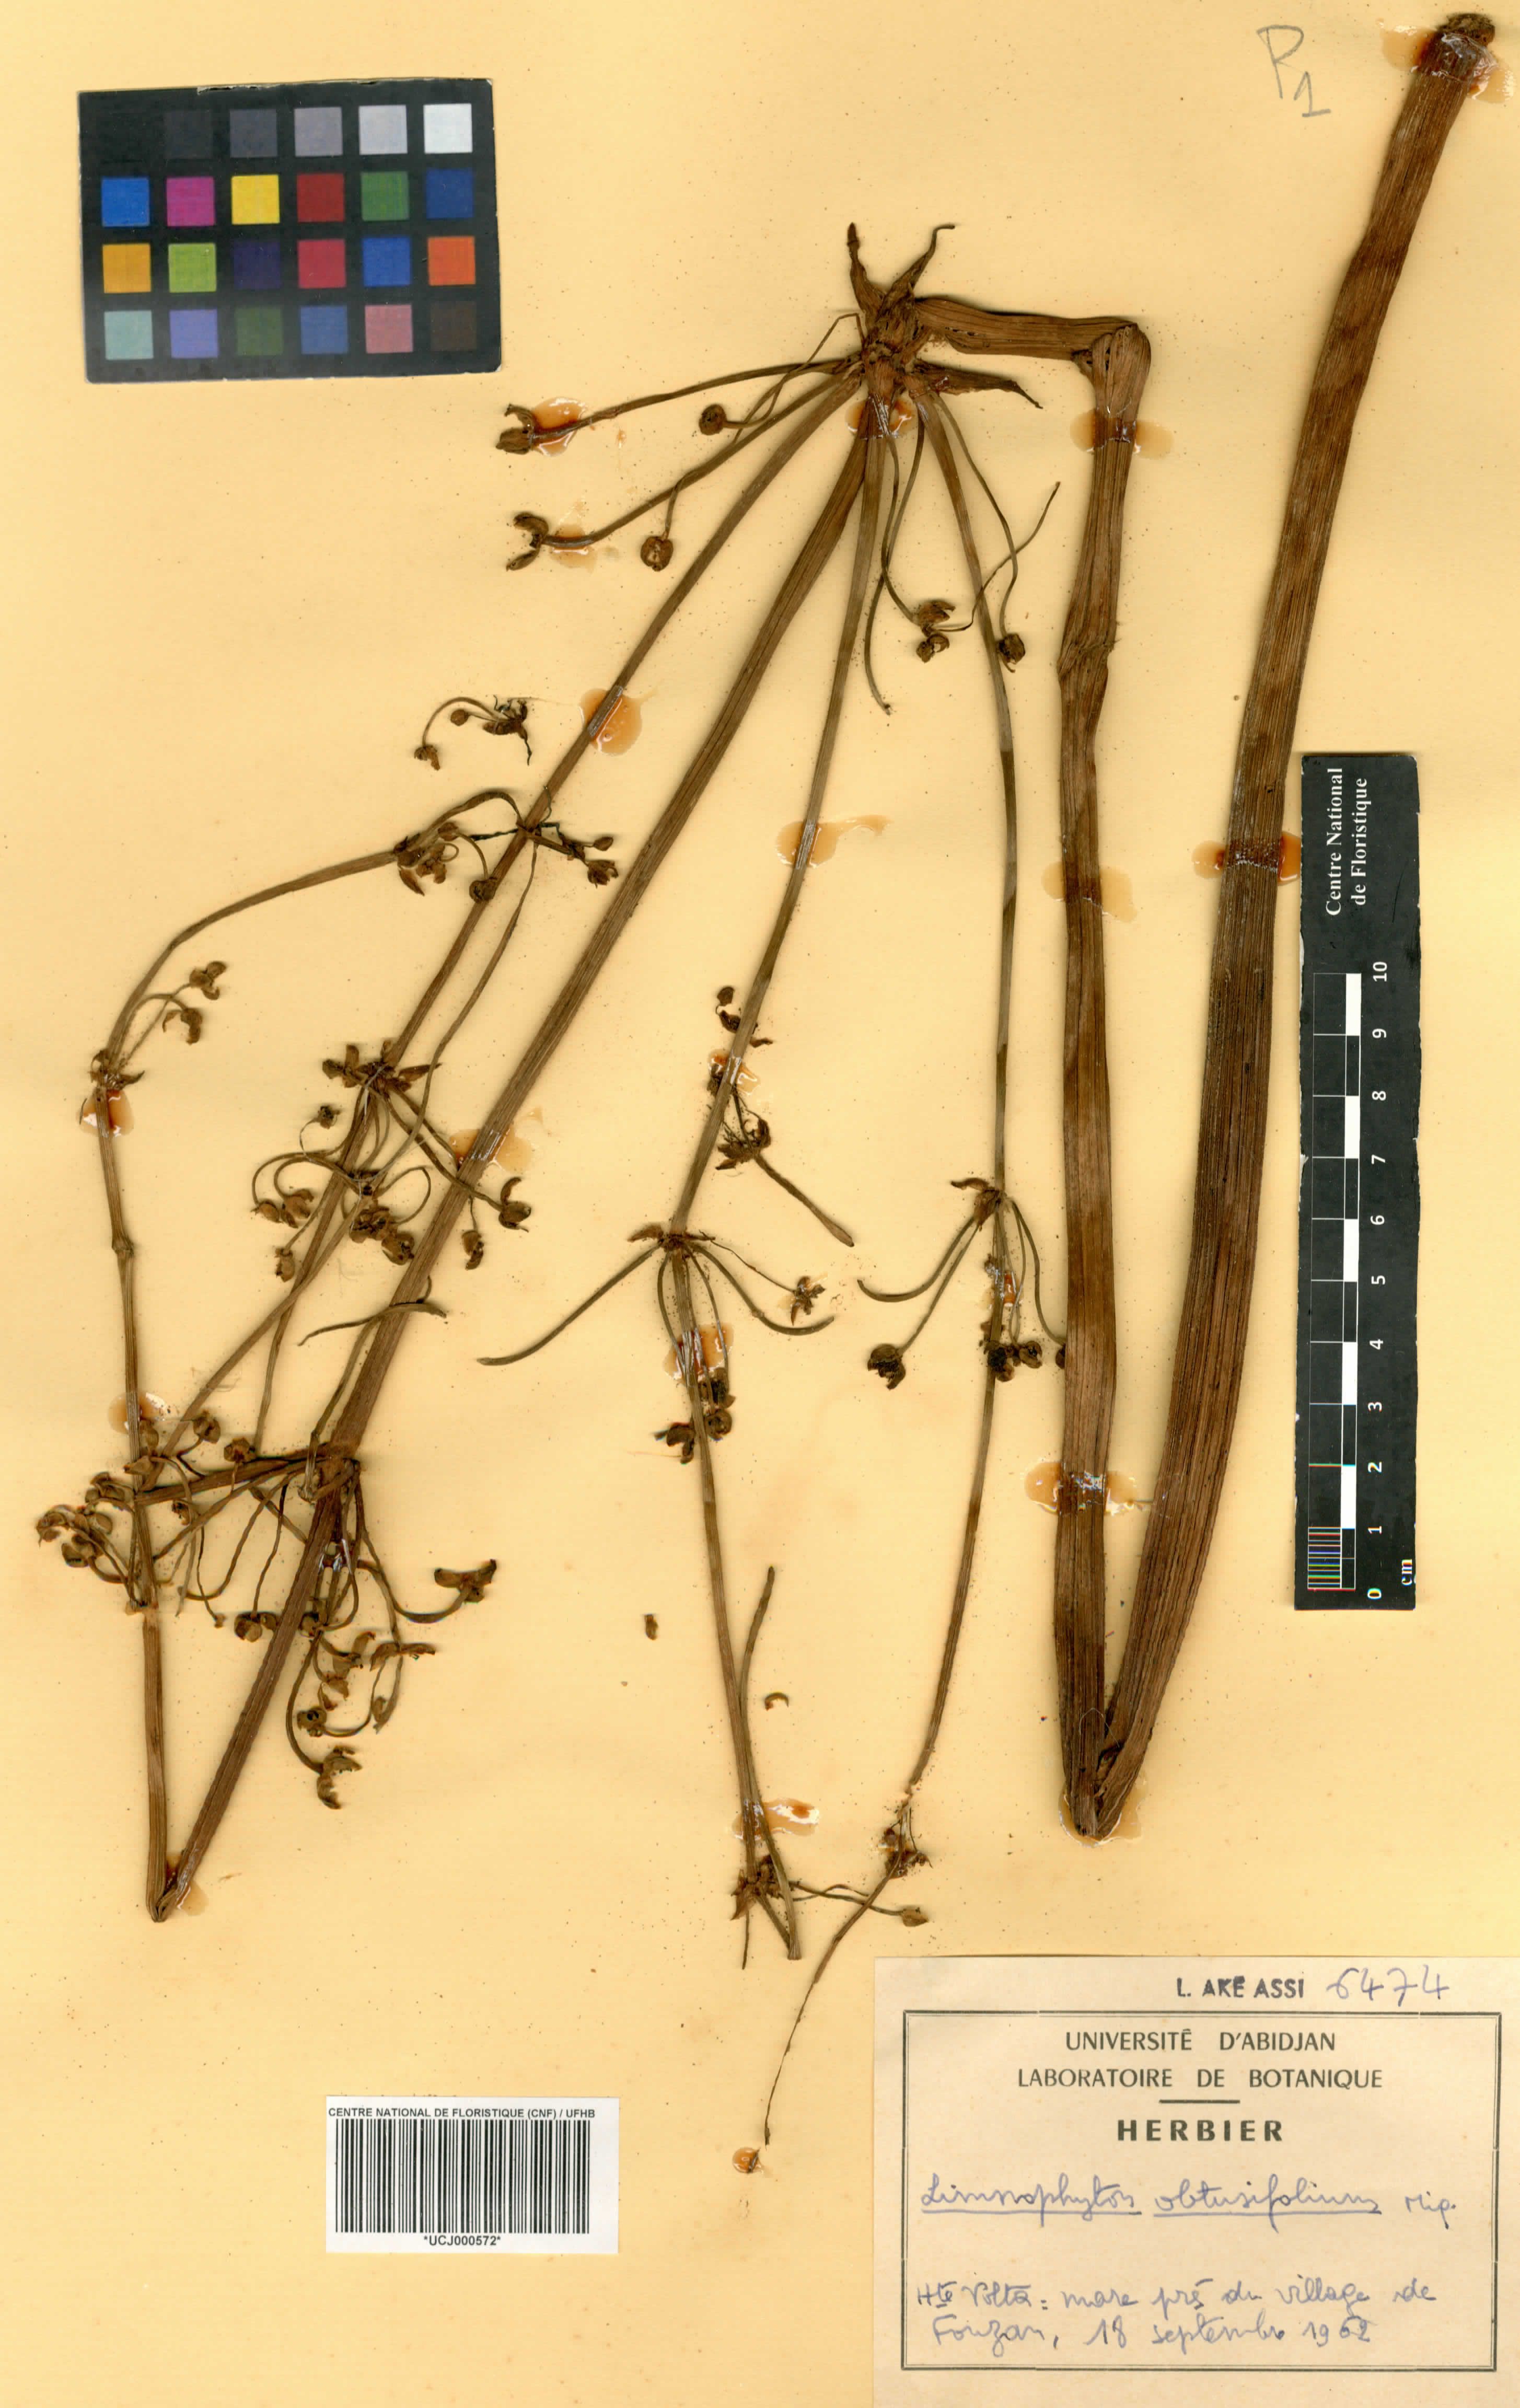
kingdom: Plantae
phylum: Tracheophyta
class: Liliopsida
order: Alismatales
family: Alismataceae
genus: Limnophyton
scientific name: Limnophyton obtusifolium
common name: Arrow head
